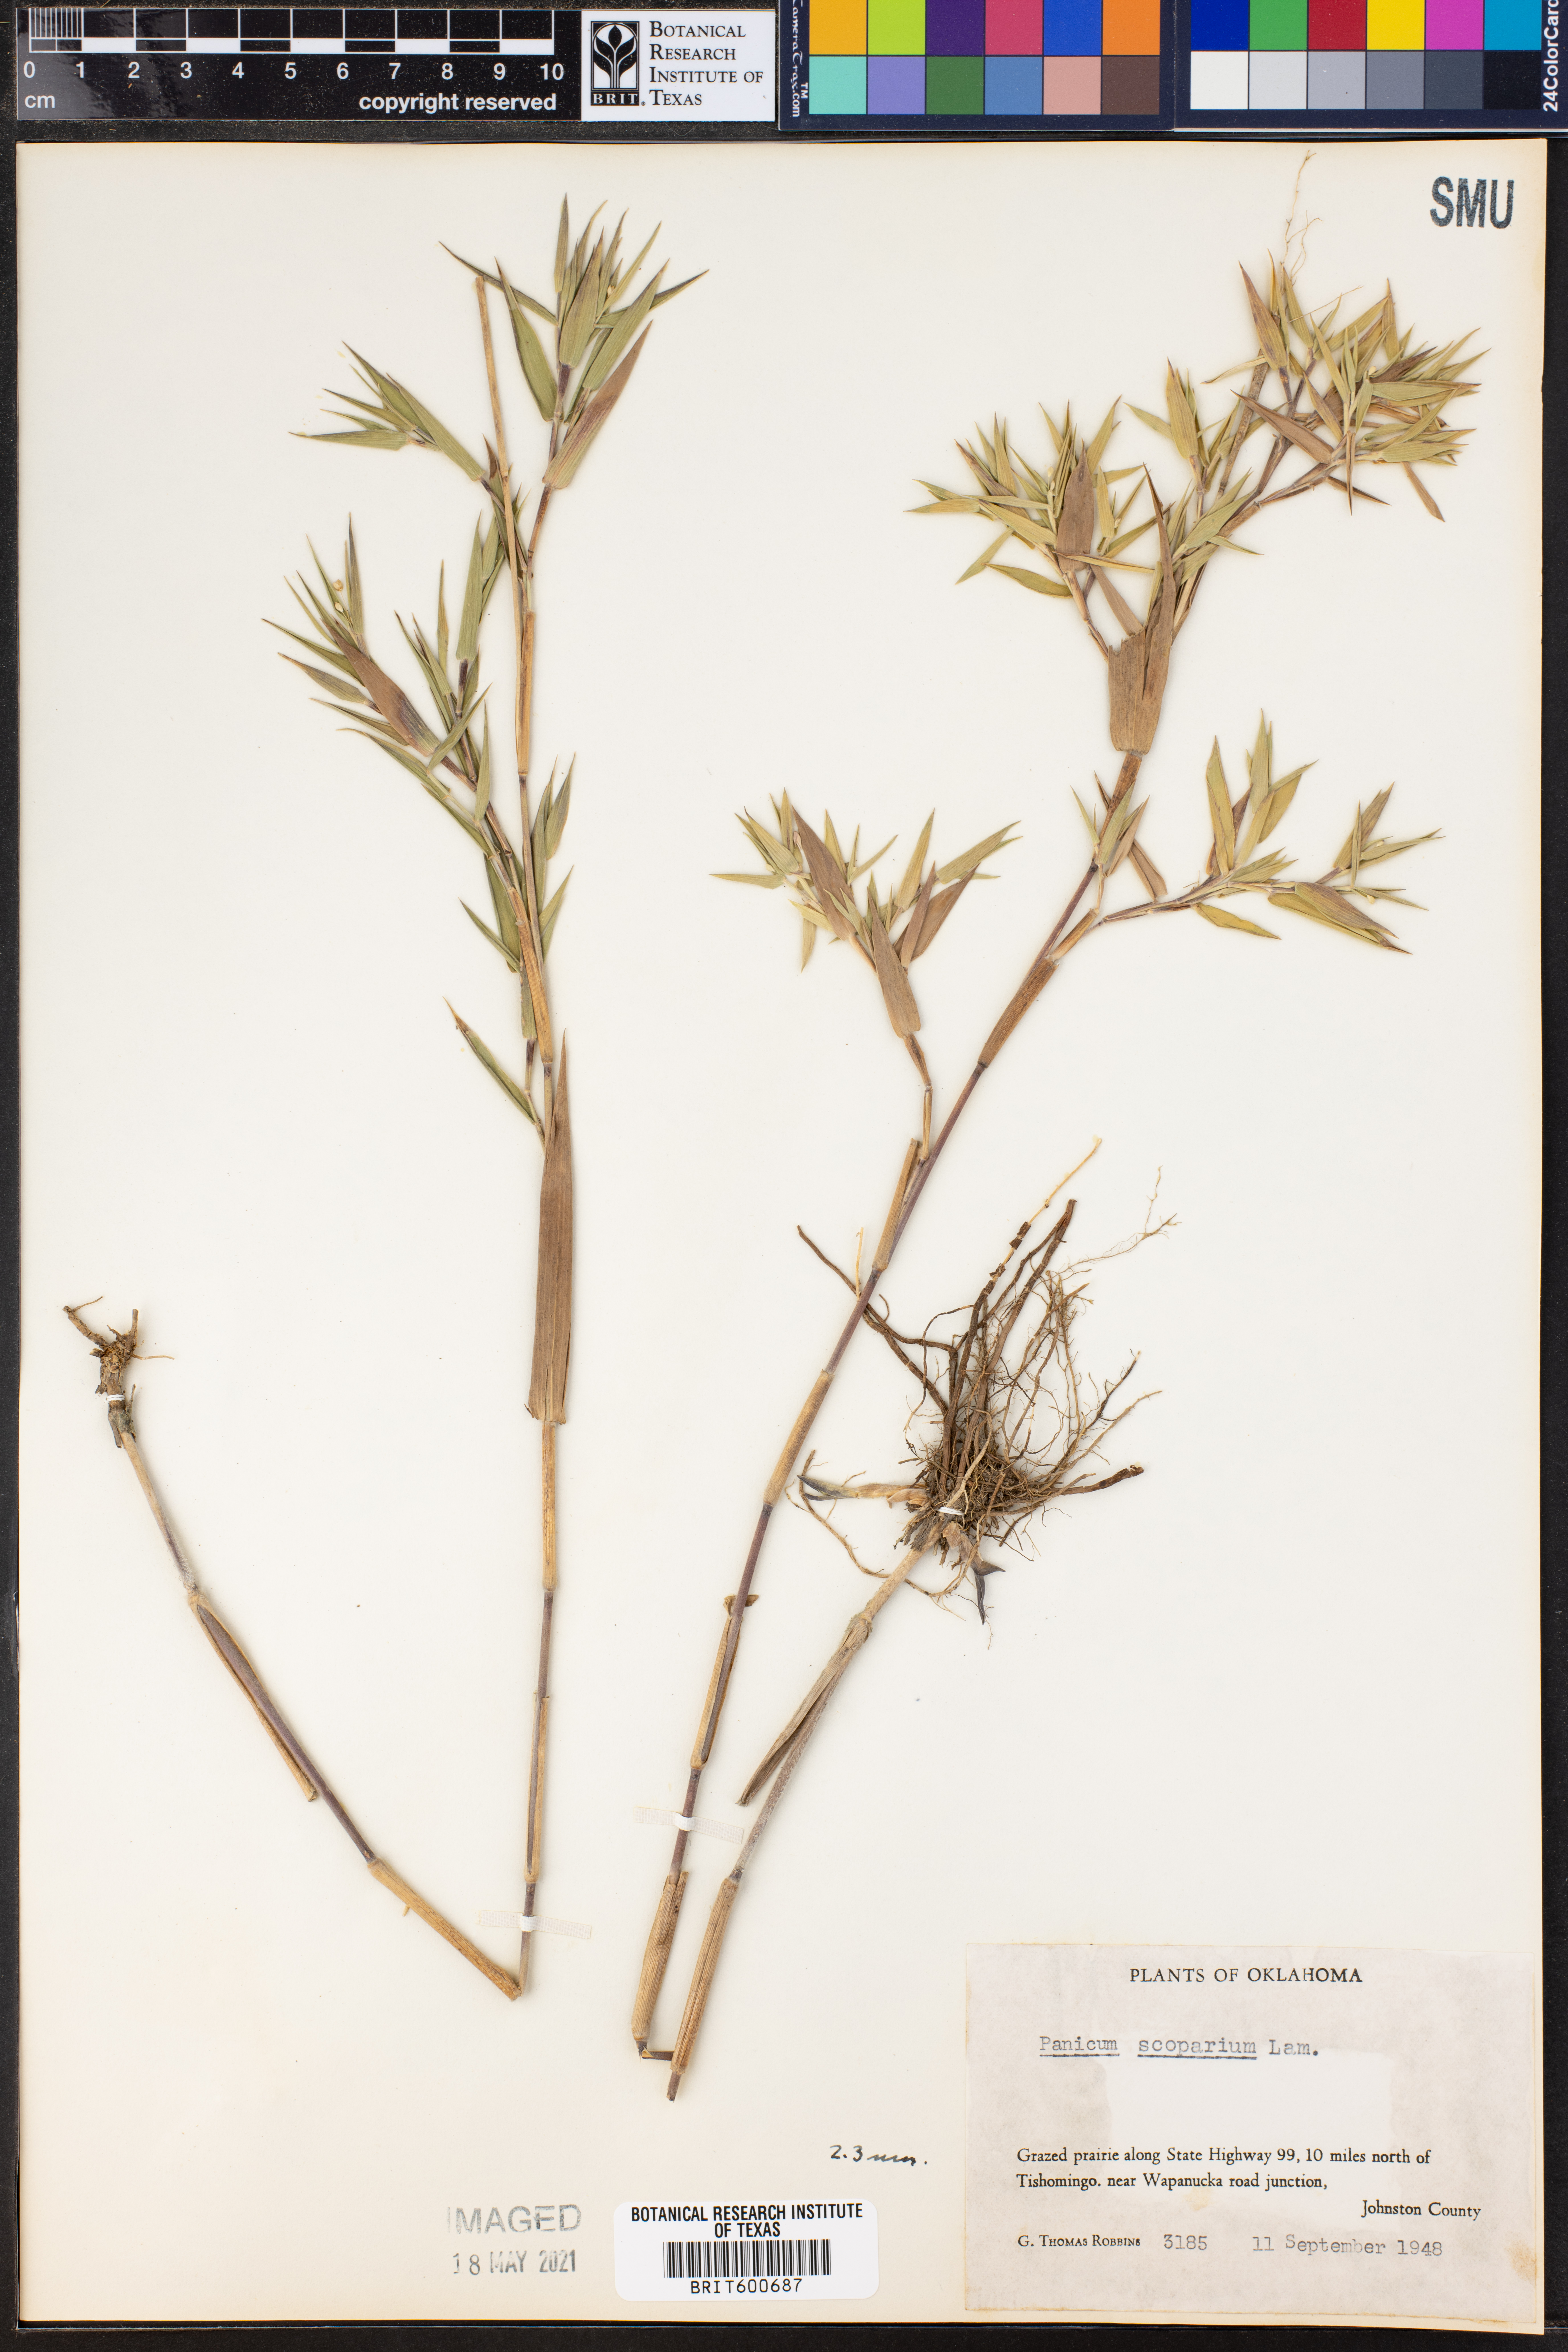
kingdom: Plantae
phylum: Tracheophyta
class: Liliopsida
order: Poales
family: Poaceae
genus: Dichanthelium
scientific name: Dichanthelium scribnerianum
